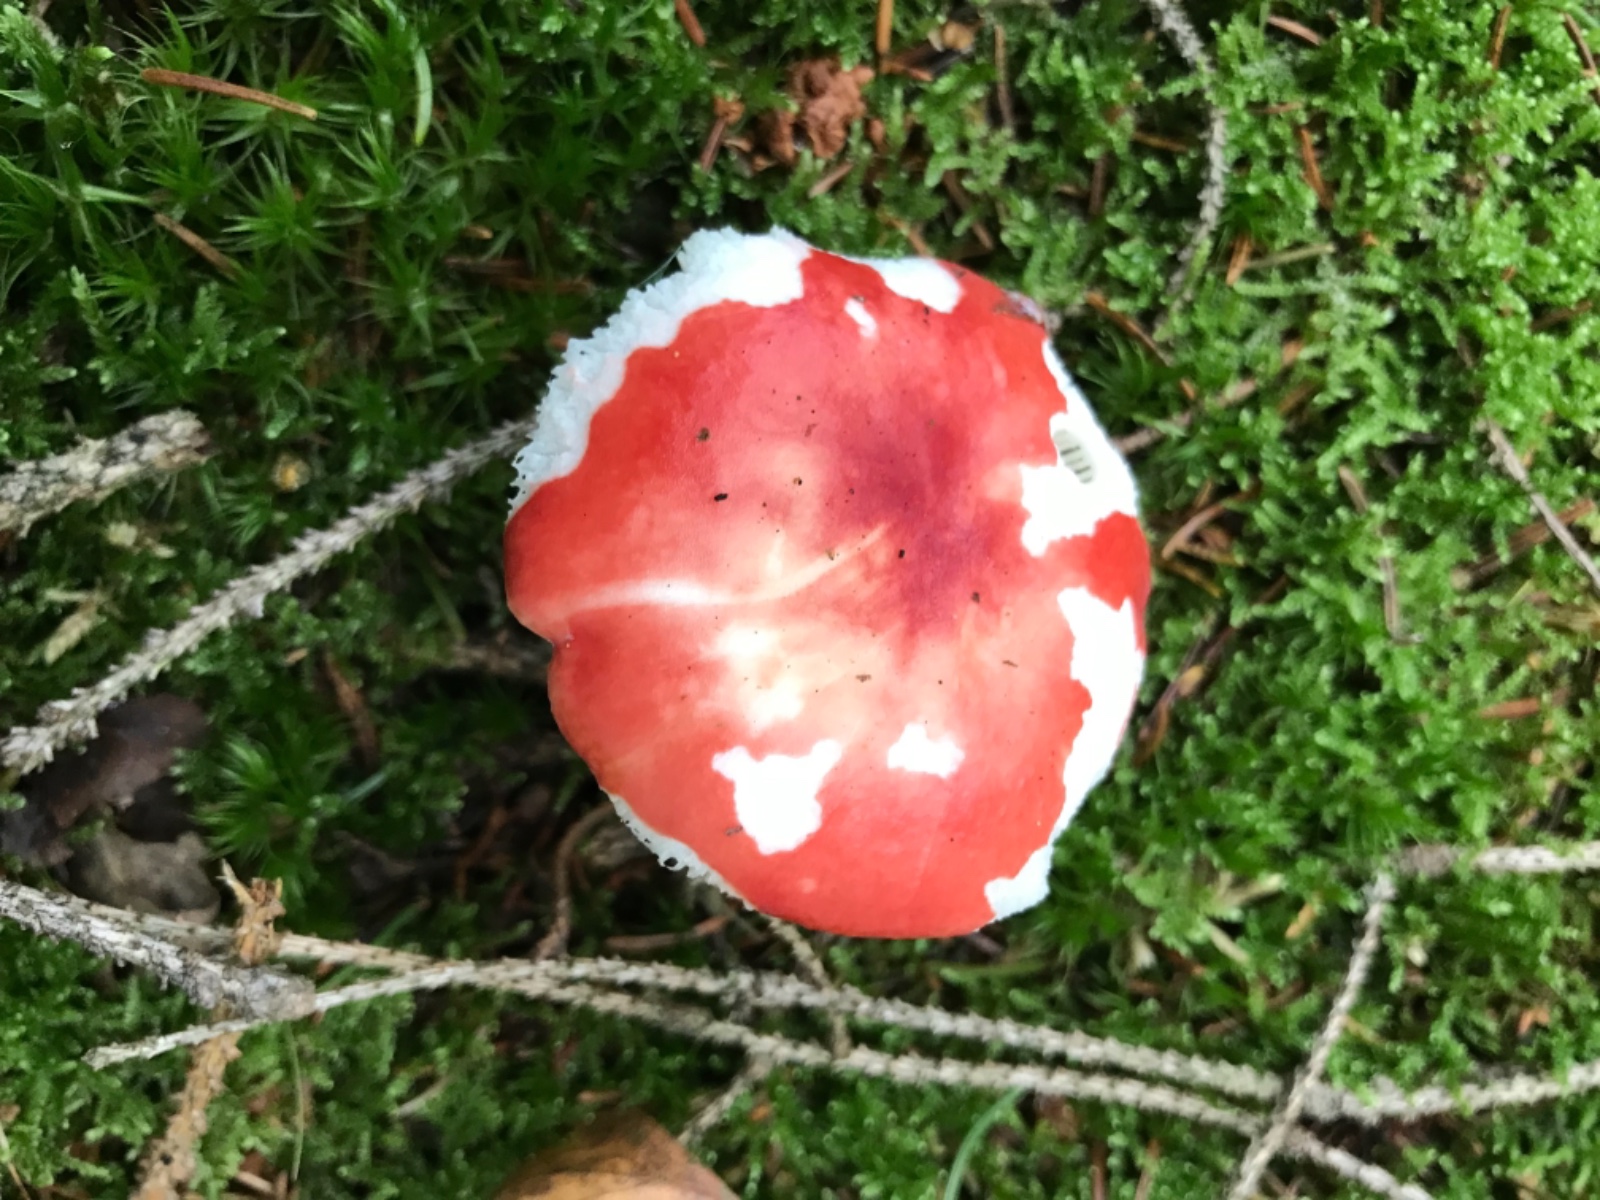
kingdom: Fungi
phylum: Basidiomycota
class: Agaricomycetes
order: Russulales
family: Russulaceae
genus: Russula
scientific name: Russula emetica
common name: stor gift-skørhat
